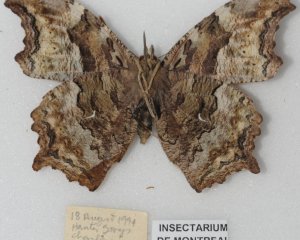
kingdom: Animalia
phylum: Arthropoda
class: Insecta
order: Lepidoptera
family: Nymphalidae
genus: Polygonia
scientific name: Polygonia vaualbum
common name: Compton Tortoiseshell
